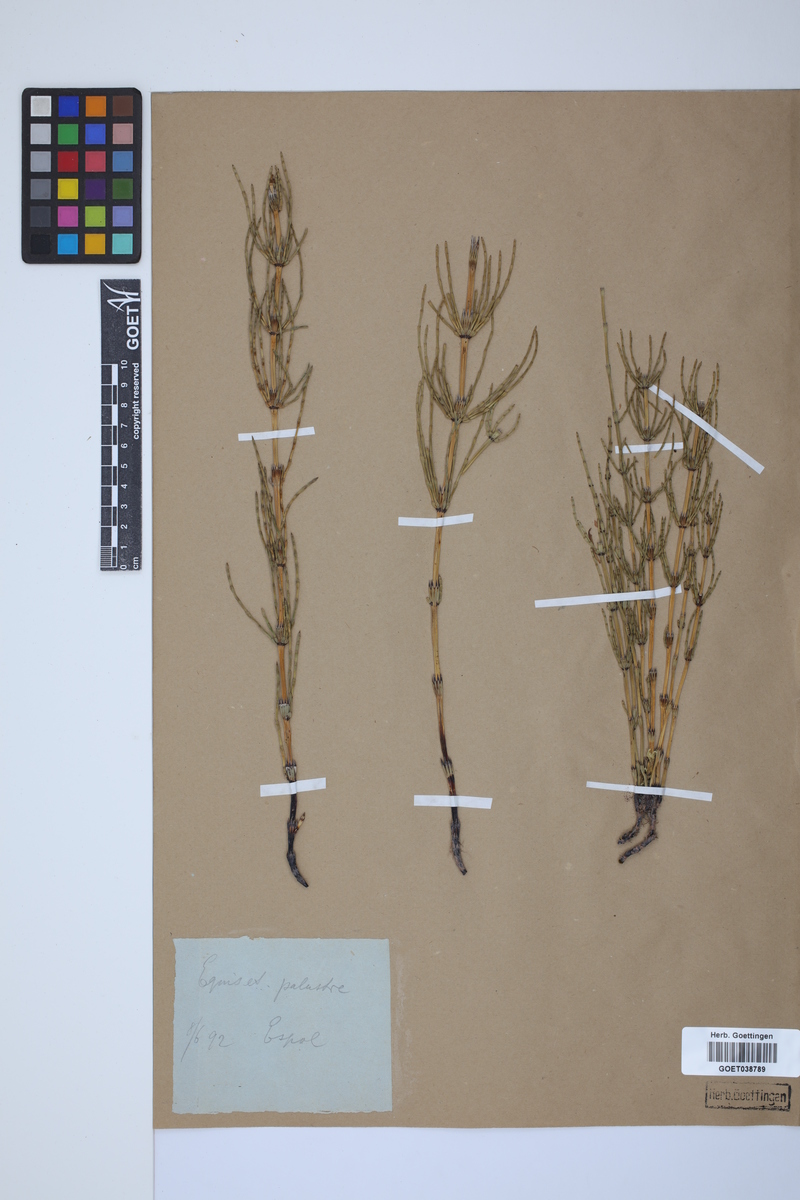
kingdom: Plantae
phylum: Tracheophyta
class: Polypodiopsida
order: Equisetales
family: Equisetaceae
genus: Equisetum
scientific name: Equisetum palustre
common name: Marsh horsetail
